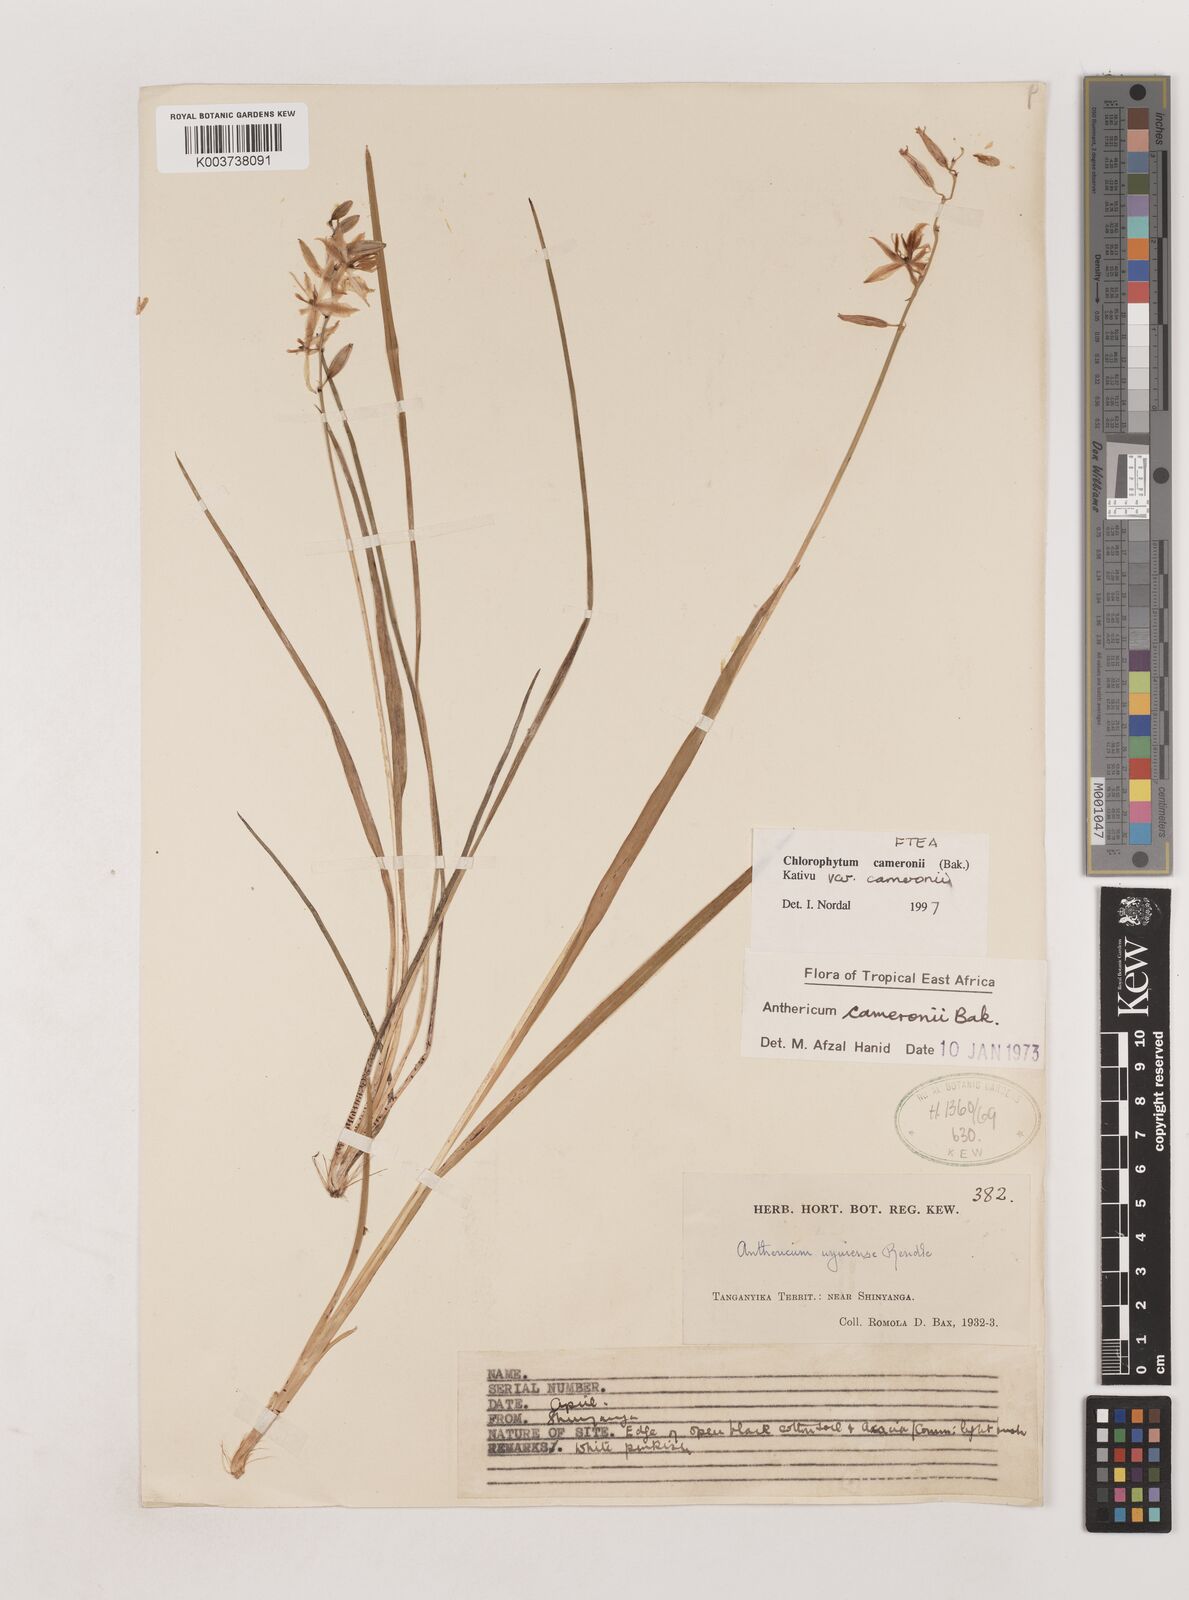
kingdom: Plantae
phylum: Tracheophyta
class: Liliopsida
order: Asparagales
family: Asparagaceae
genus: Chlorophytum
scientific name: Chlorophytum cameronii
